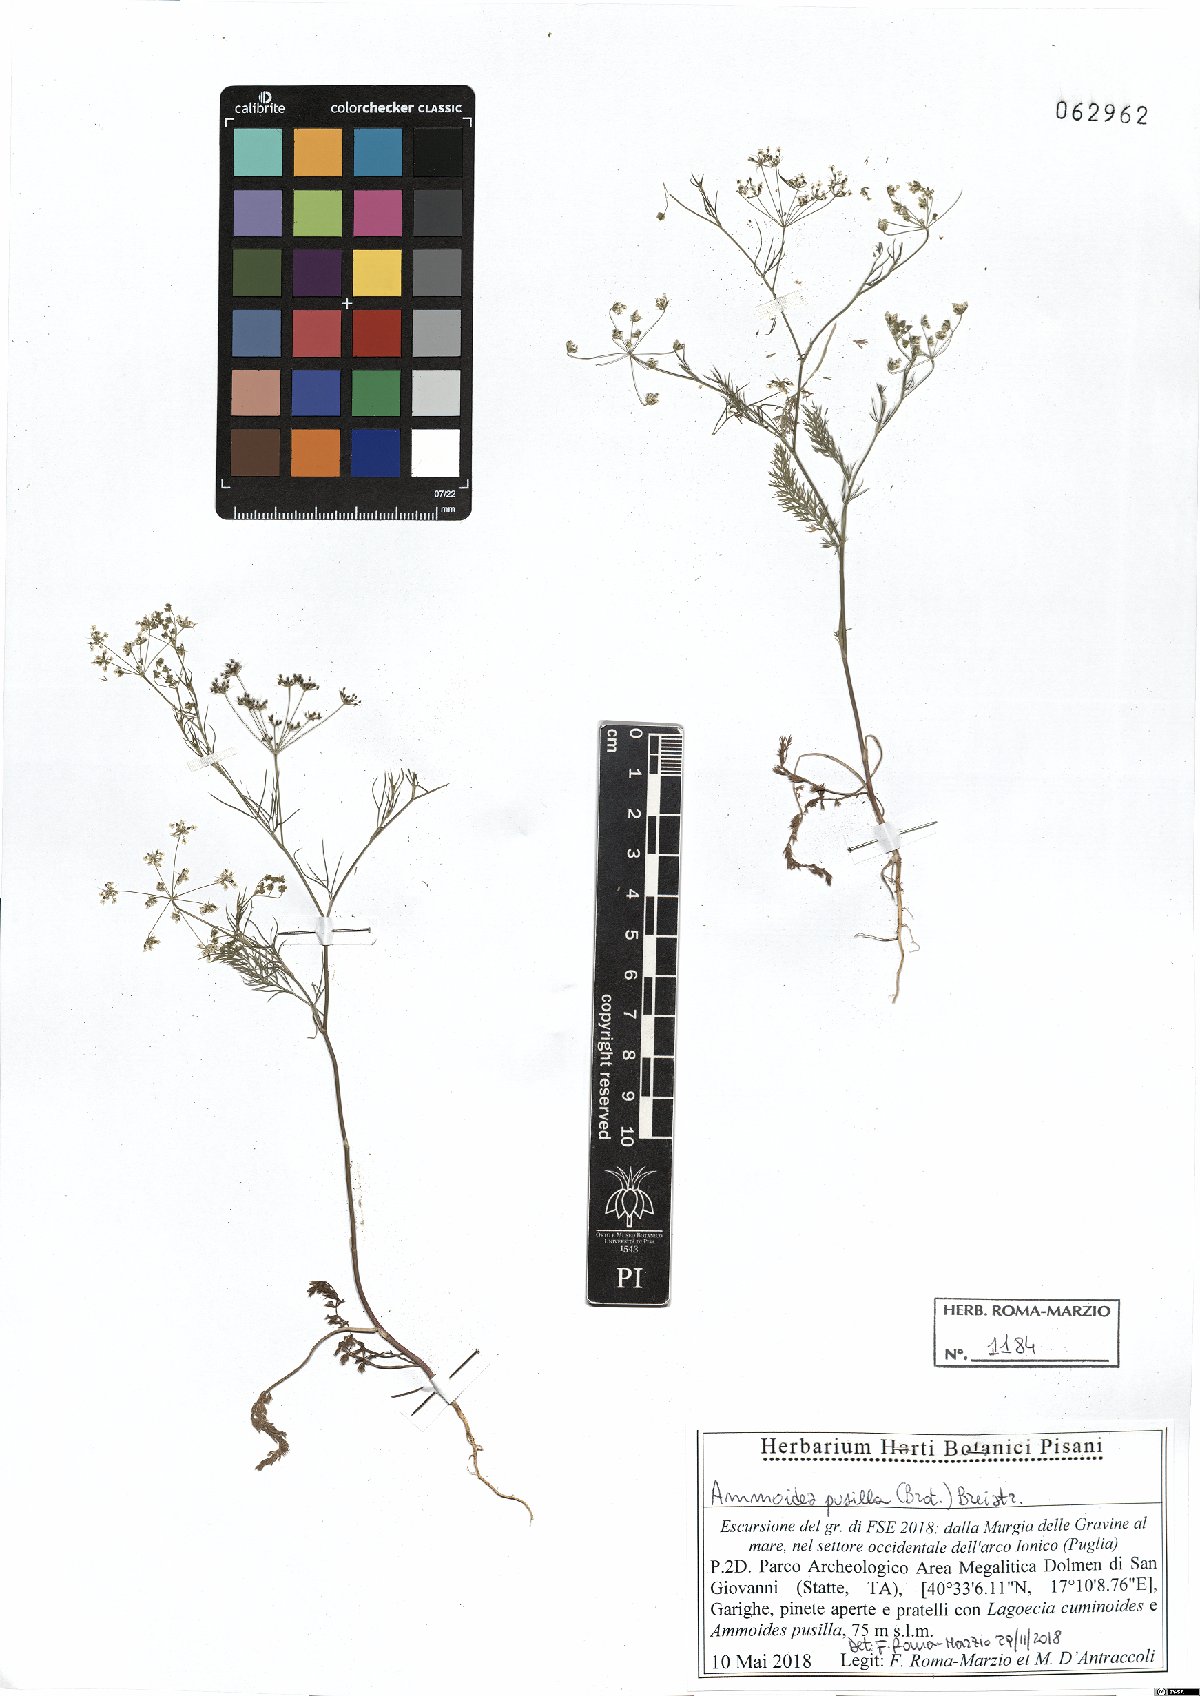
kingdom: Plantae
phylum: Tracheophyta
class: Magnoliopsida
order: Apiales
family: Apiaceae
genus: Ammoides
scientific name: Ammoides pusilla
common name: Cerfolium
